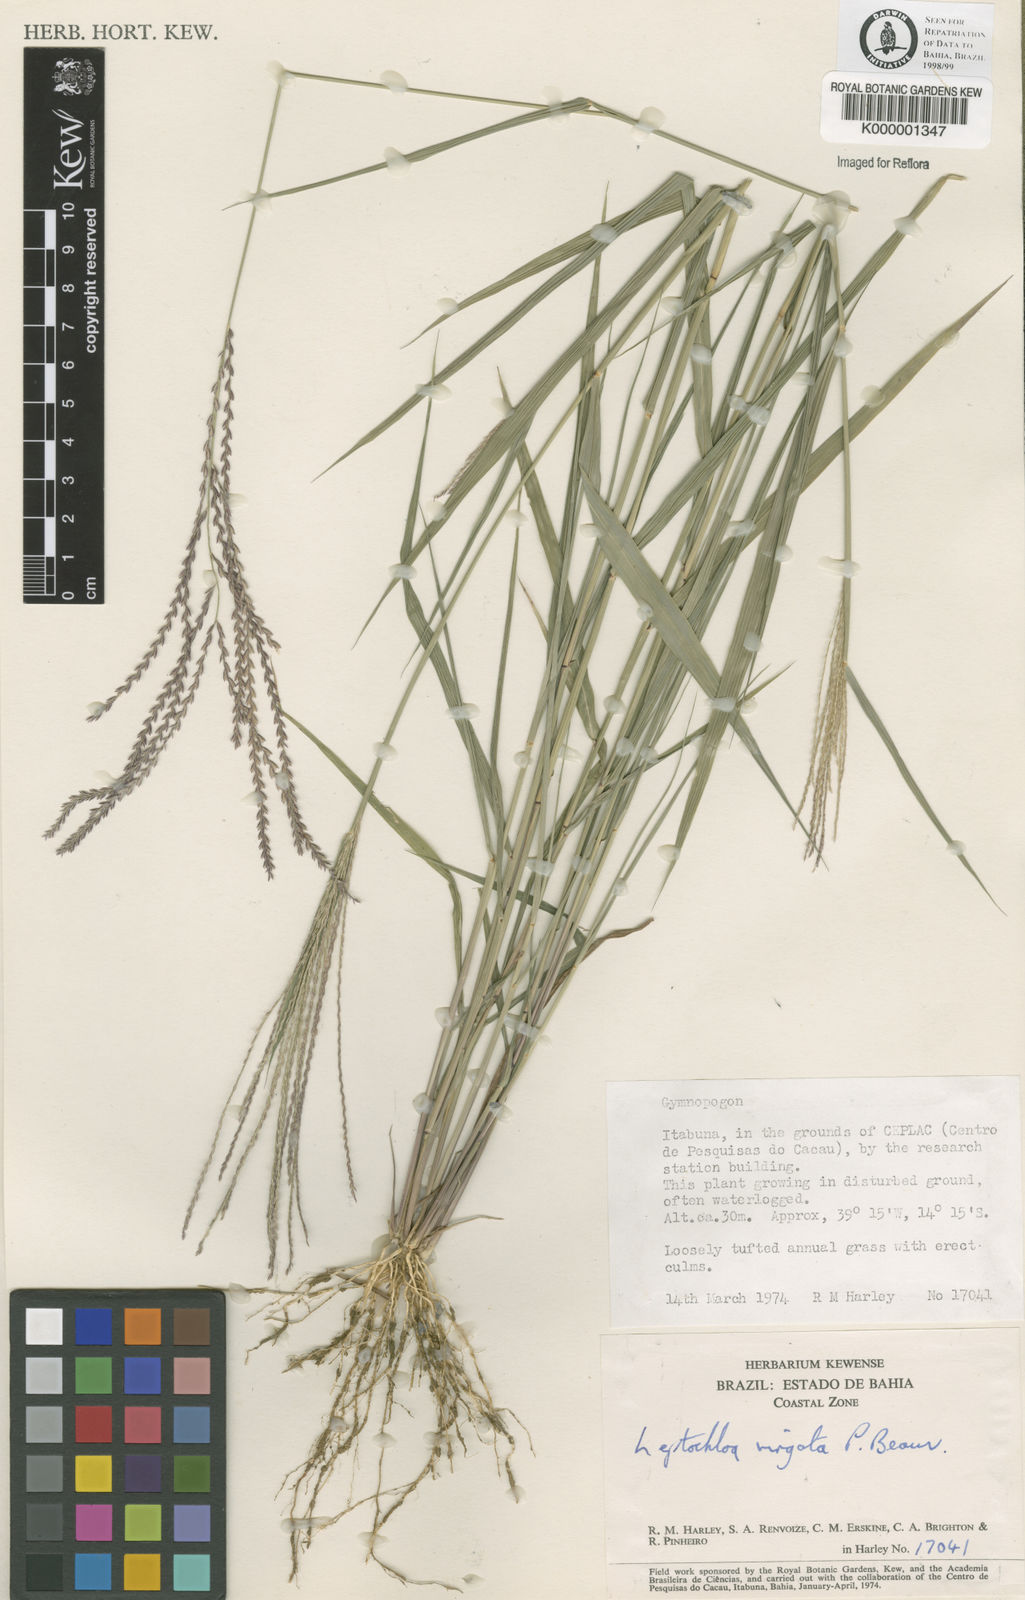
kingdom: Plantae
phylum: Tracheophyta
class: Liliopsida
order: Poales
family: Poaceae
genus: Leptochloa
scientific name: Leptochloa virgata
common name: Tropical sprangletop
